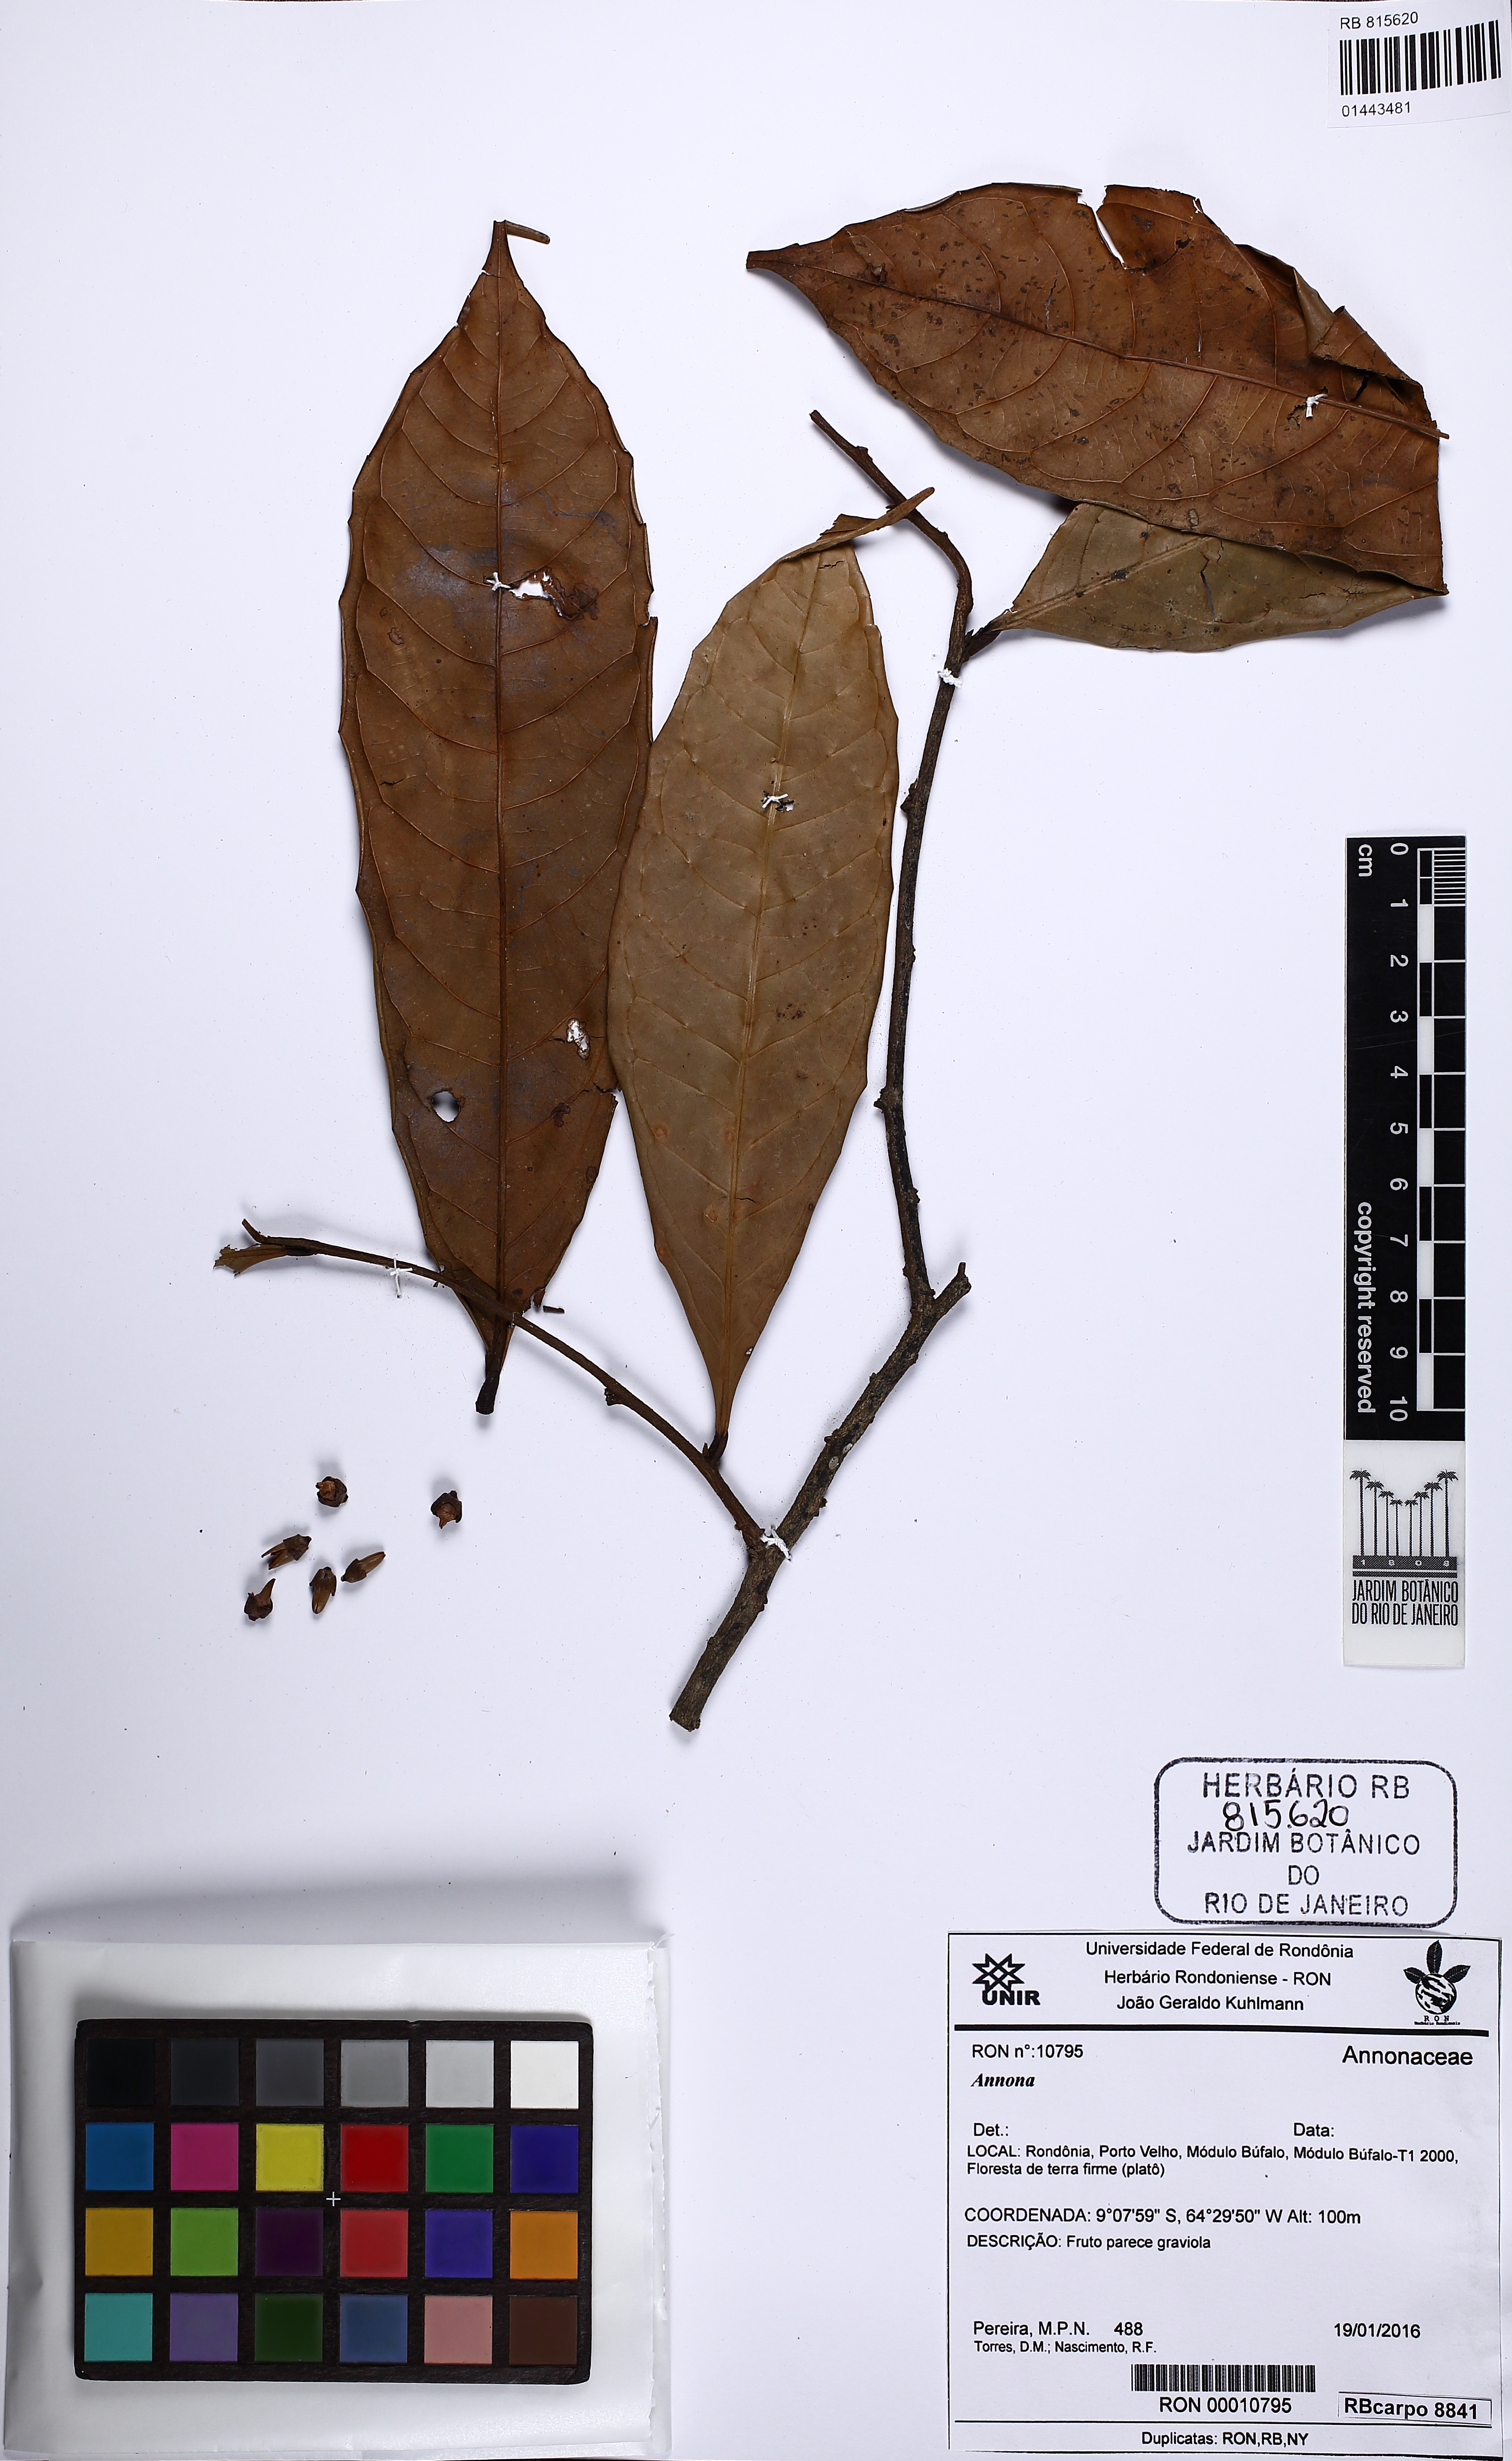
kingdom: Plantae
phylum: Tracheophyta
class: Magnoliopsida
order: Magnoliales
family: Annonaceae
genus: Annona
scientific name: Annona
